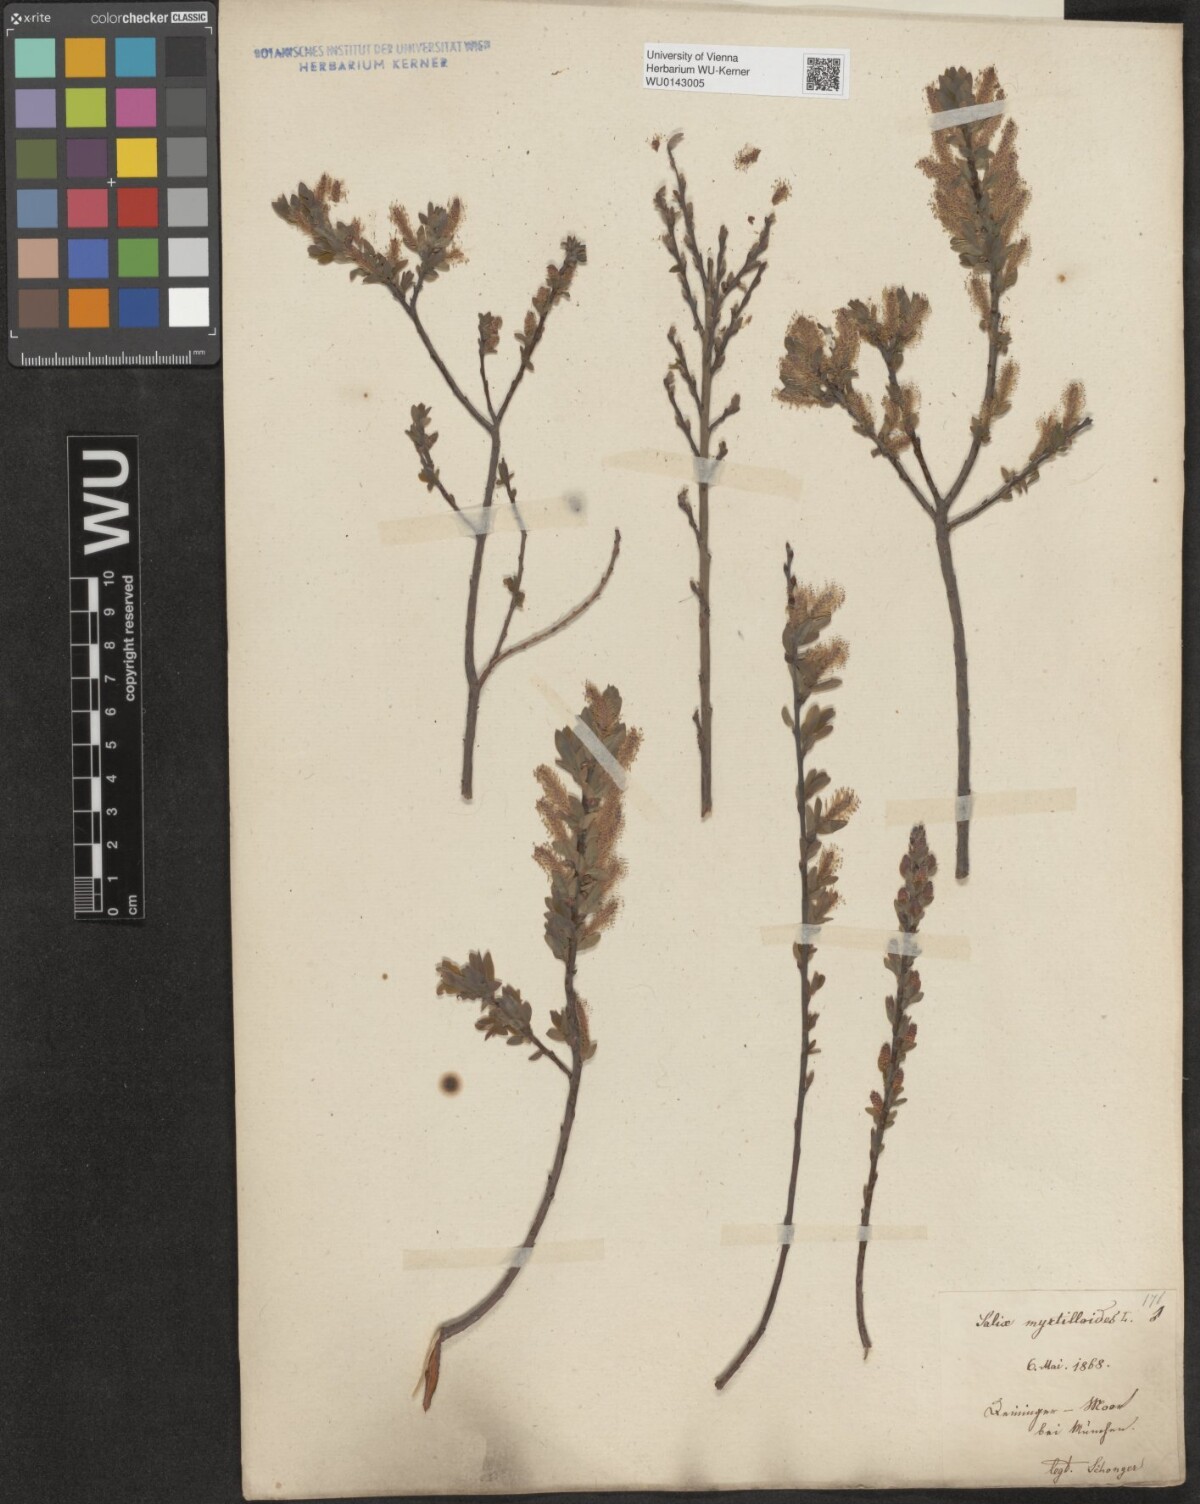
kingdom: Plantae
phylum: Tracheophyta
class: Magnoliopsida
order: Malpighiales
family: Salicaceae
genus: Salix
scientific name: Salix myrtilloides
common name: Myrtle-leaved willow
